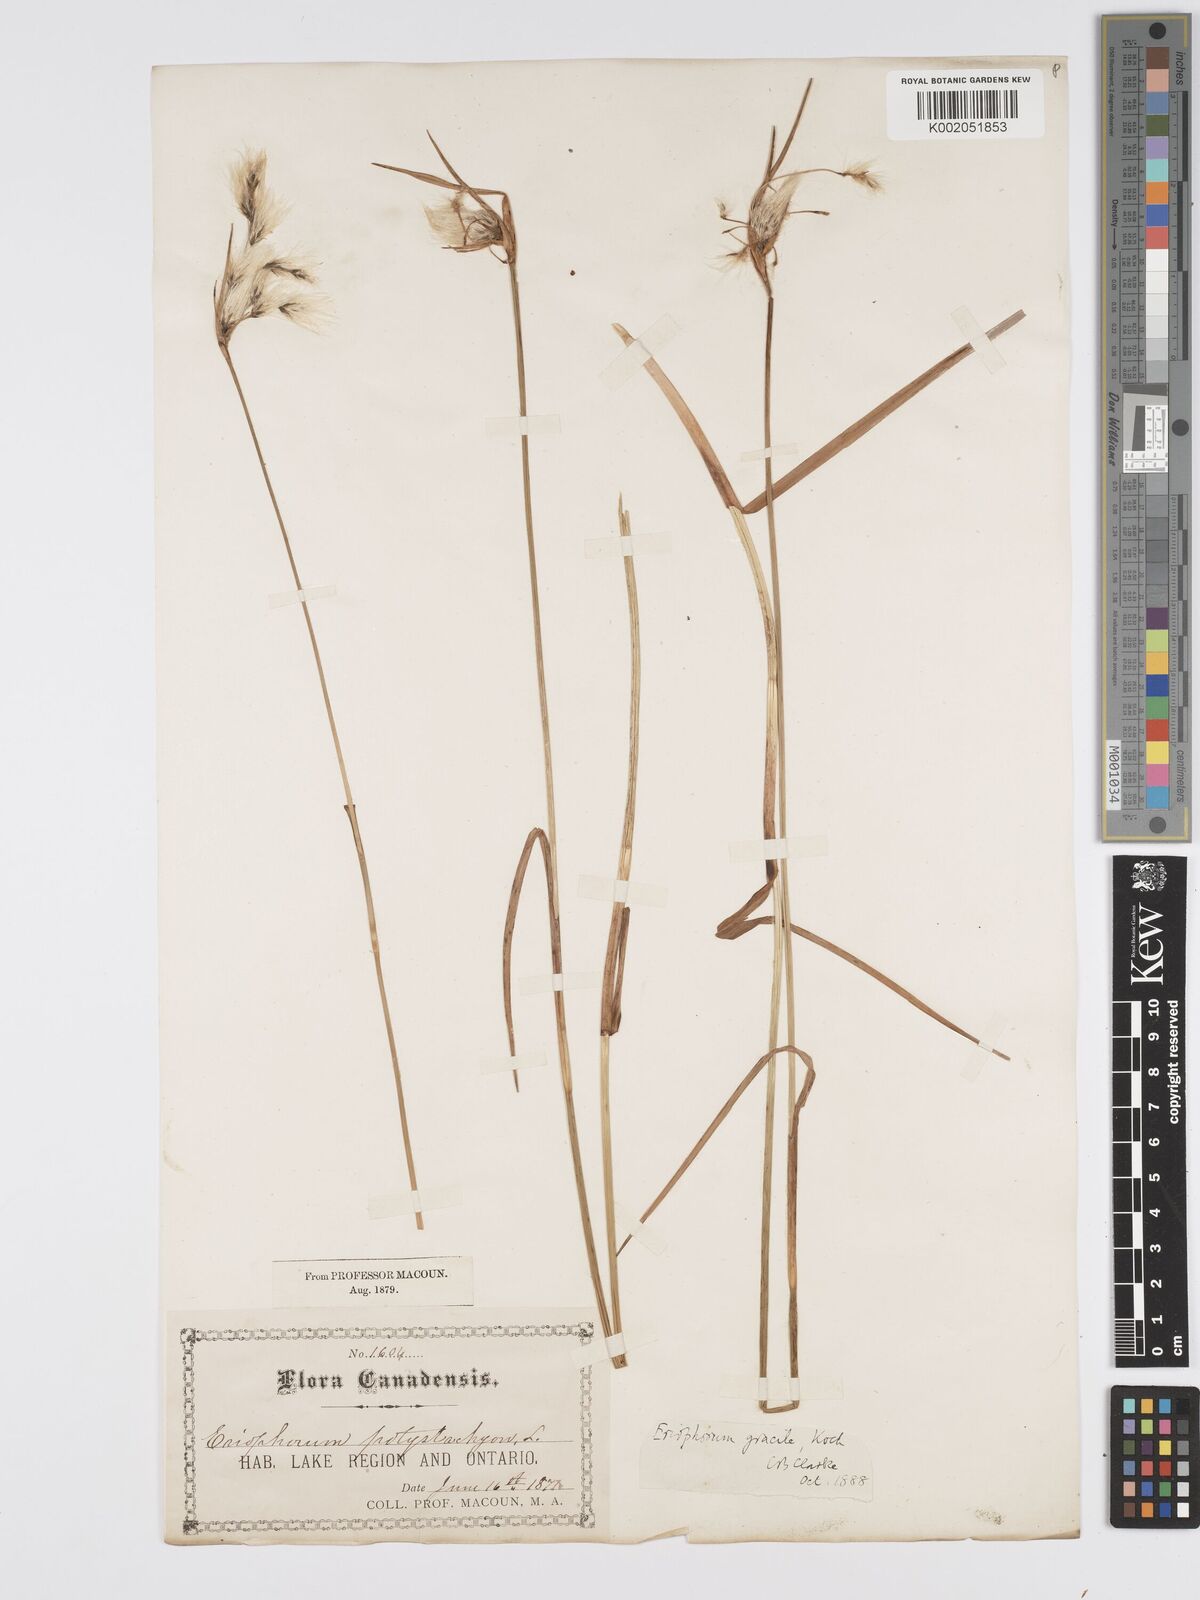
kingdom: Plantae
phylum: Tracheophyta
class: Liliopsida
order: Poales
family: Cyperaceae
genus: Eriophorum
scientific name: Eriophorum gracile
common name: Slender cottongrass
